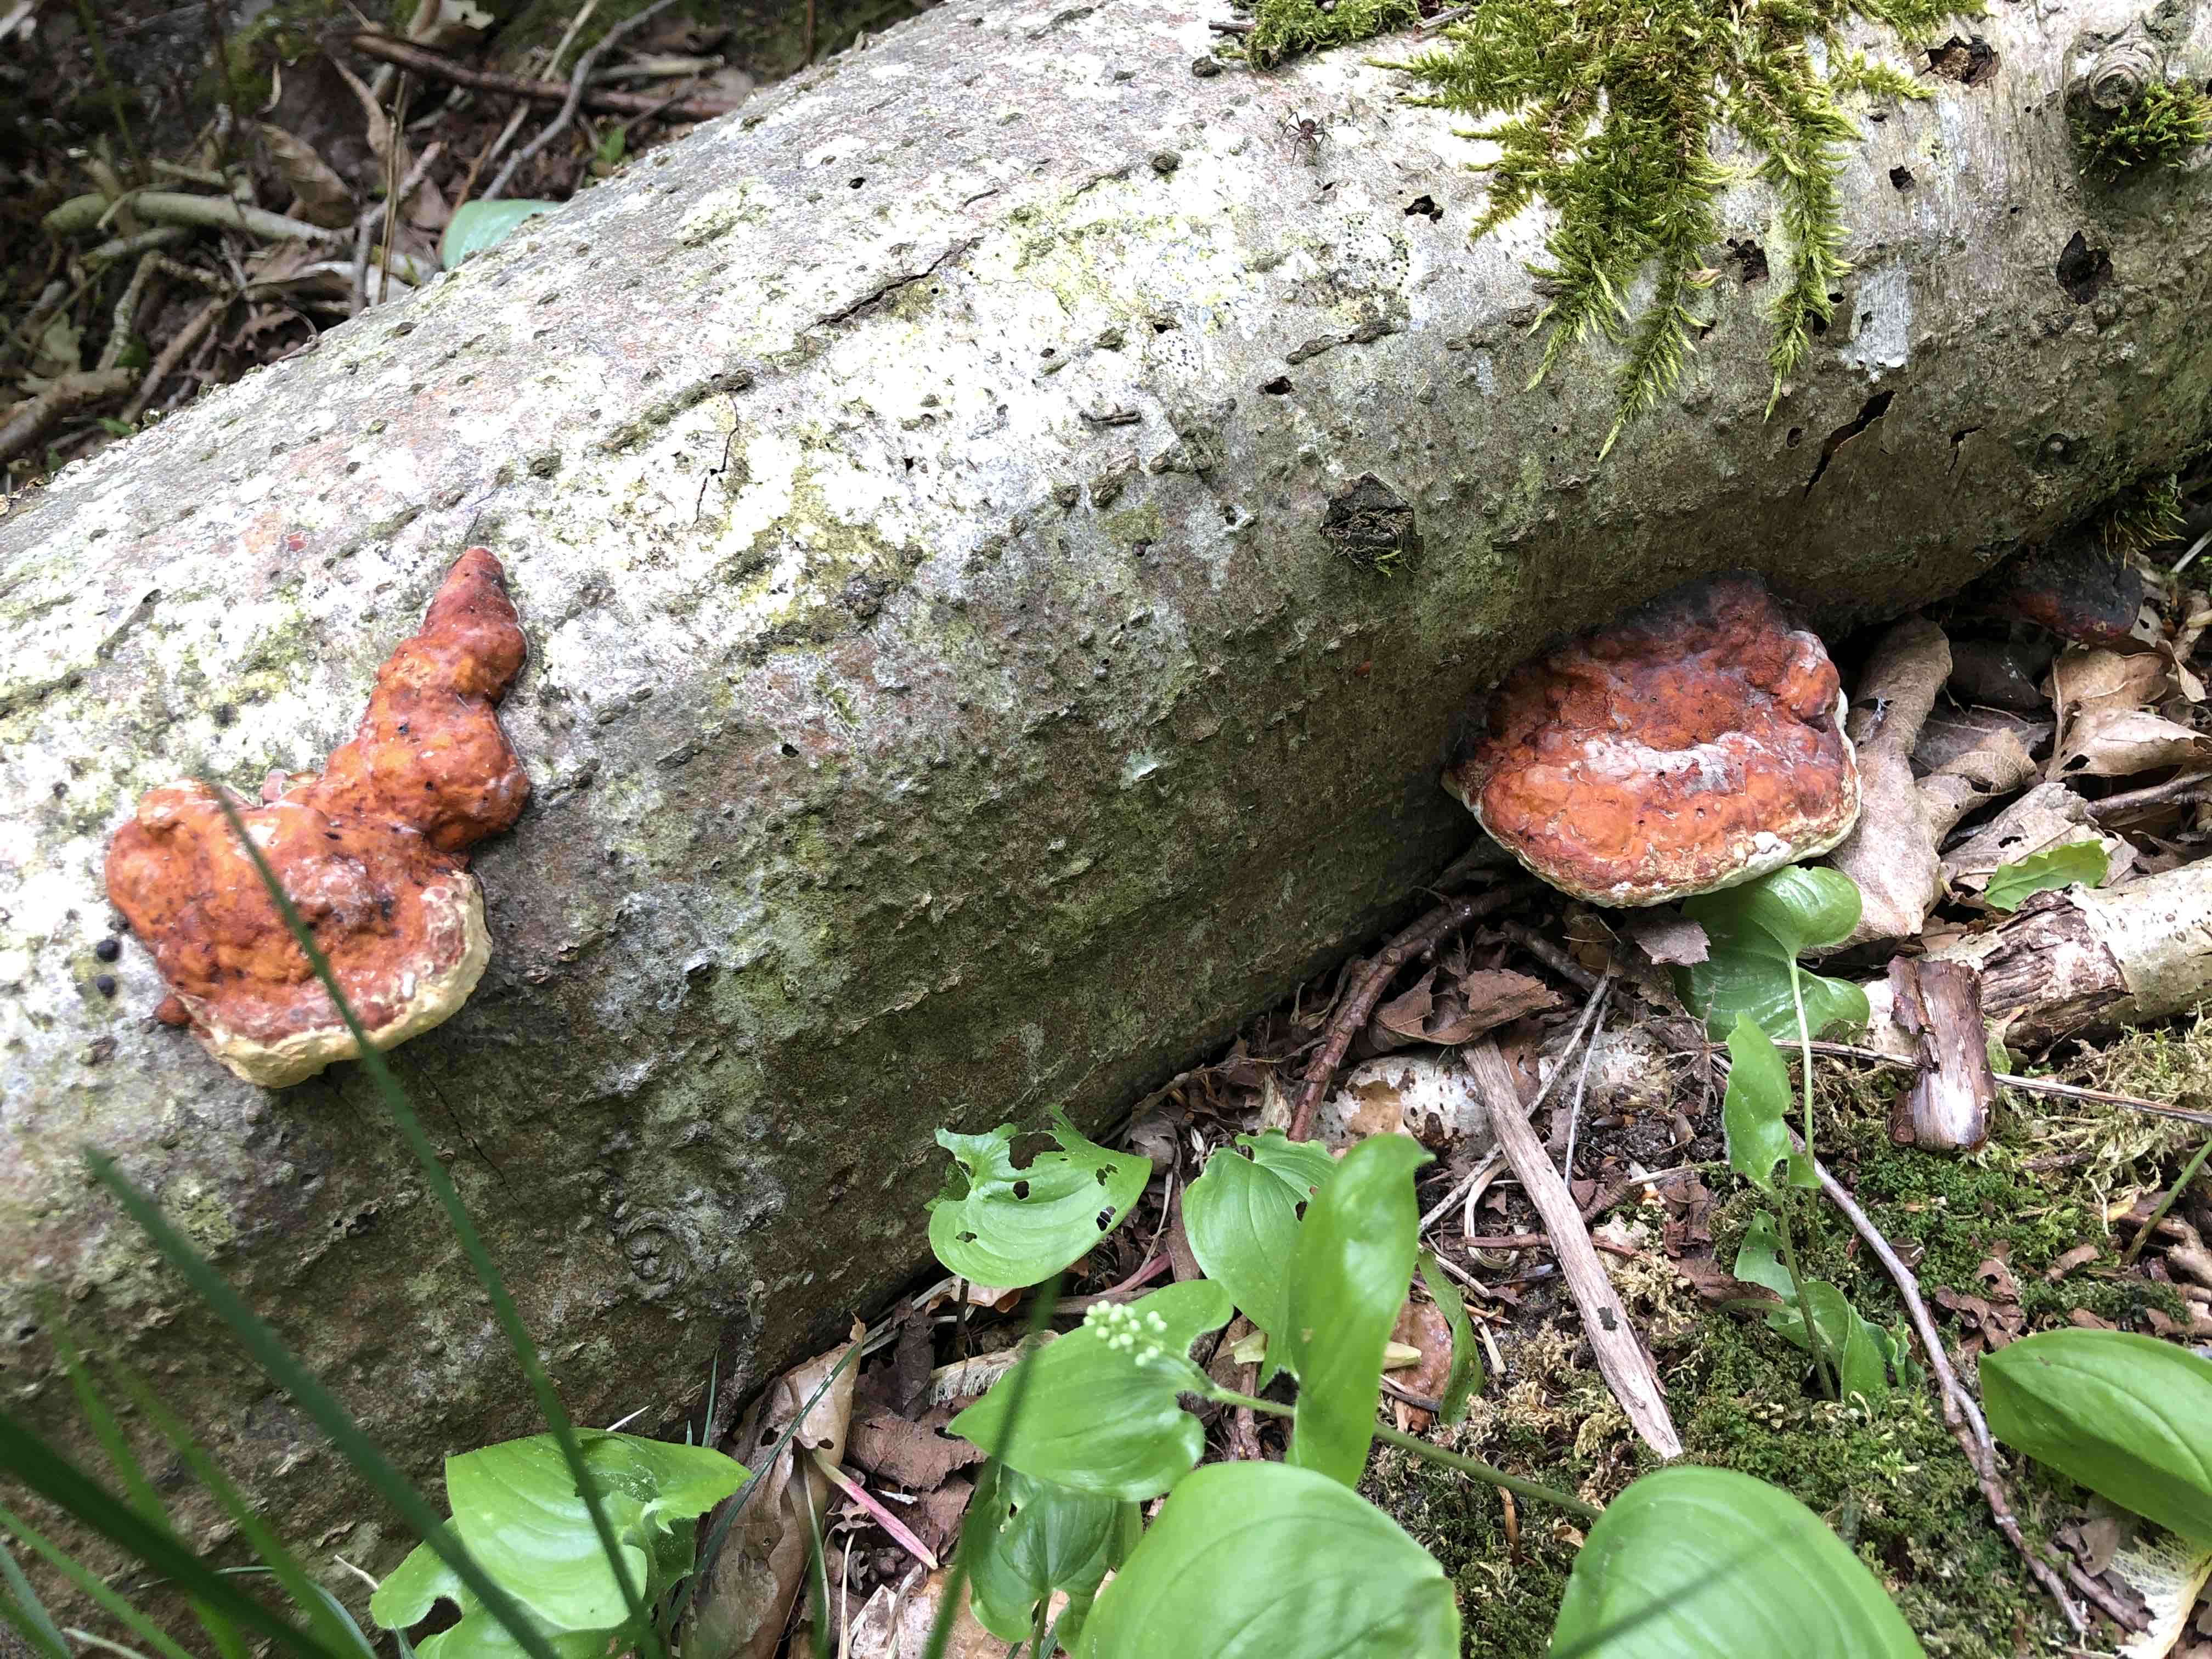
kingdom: Fungi
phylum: Basidiomycota
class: Agaricomycetes
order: Polyporales
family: Fomitopsidaceae
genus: Fomitopsis
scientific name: Fomitopsis pinicola
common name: randbæltet hovporesvamp
